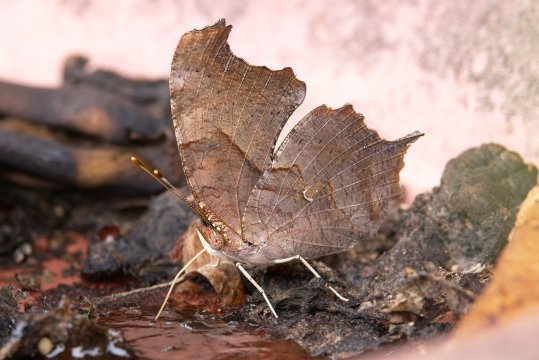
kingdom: Animalia
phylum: Arthropoda
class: Insecta
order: Lepidoptera
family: Nymphalidae
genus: Polygonia
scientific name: Polygonia interrogationis
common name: Question Mark
